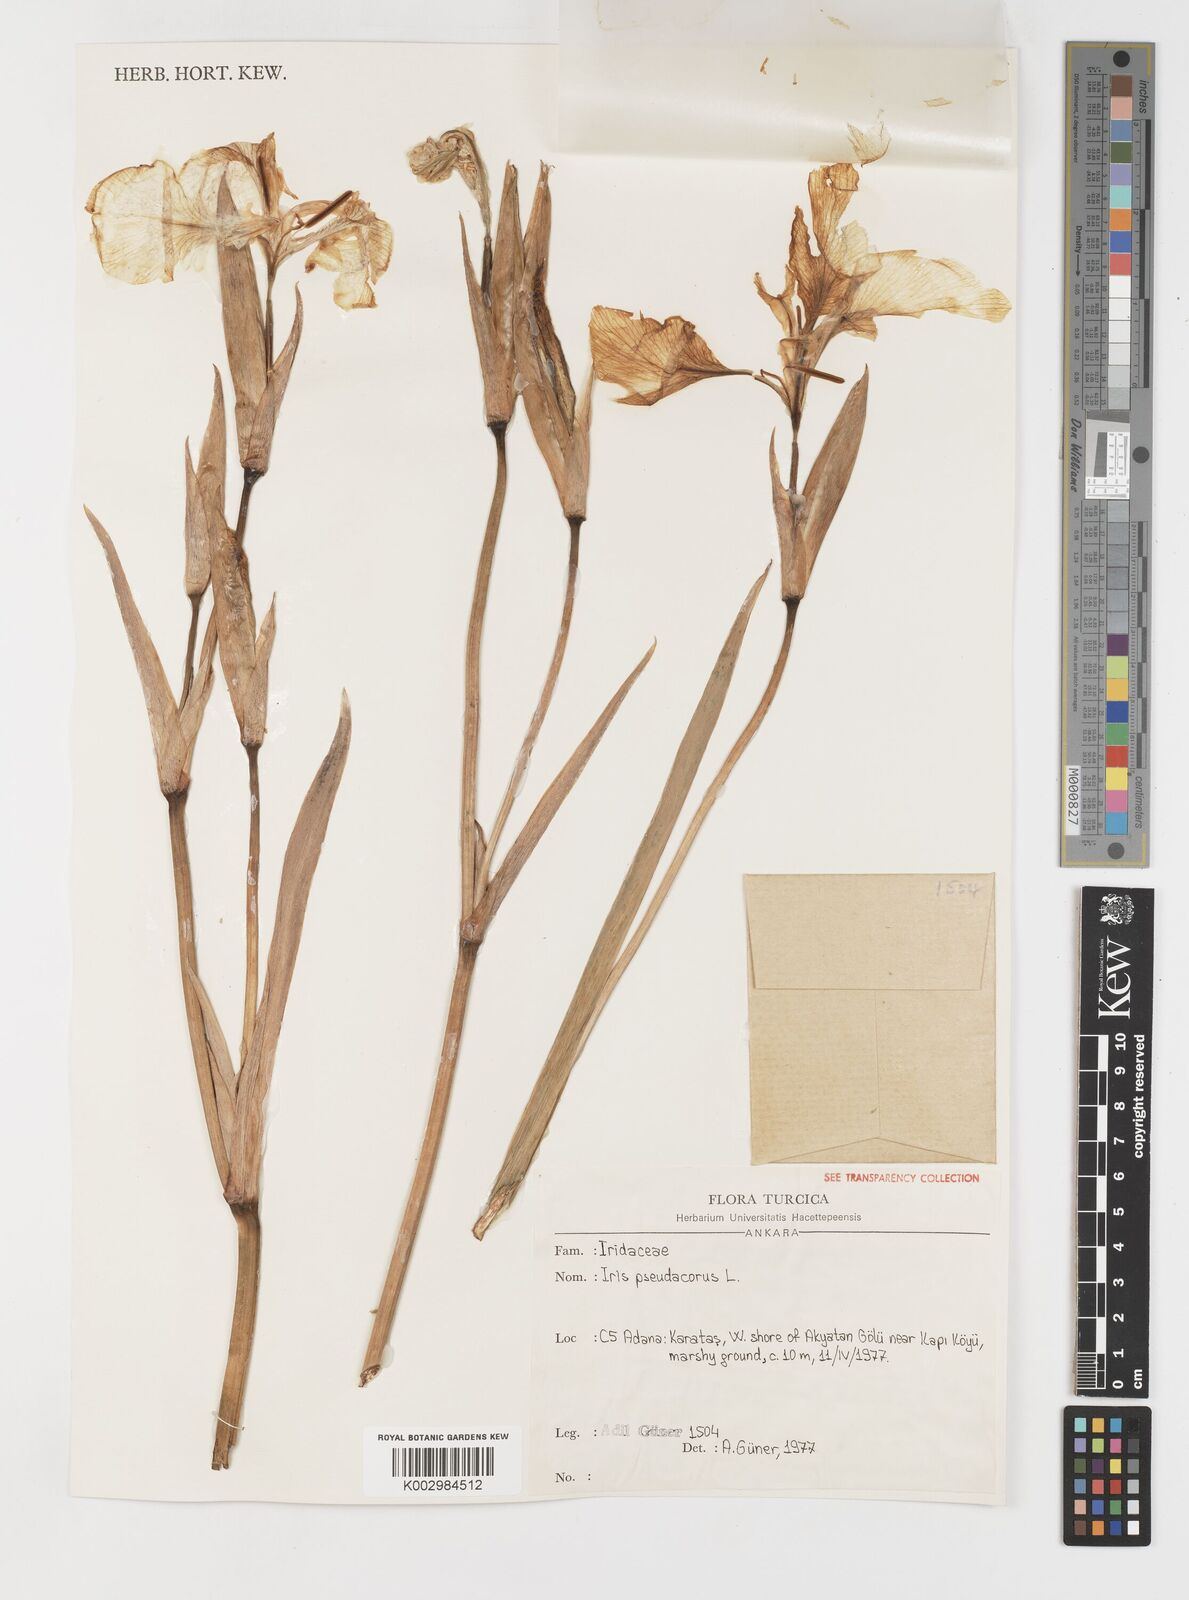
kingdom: Plantae
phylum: Tracheophyta
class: Liliopsida
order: Asparagales
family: Iridaceae
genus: Iris
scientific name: Iris pseudacorus
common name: Yellow flag
